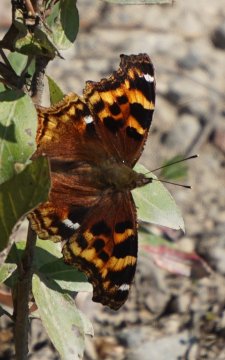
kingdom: Animalia
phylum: Arthropoda
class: Insecta
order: Lepidoptera
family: Nymphalidae
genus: Polygonia
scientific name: Polygonia vaualbum
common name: Compton Tortoiseshell
